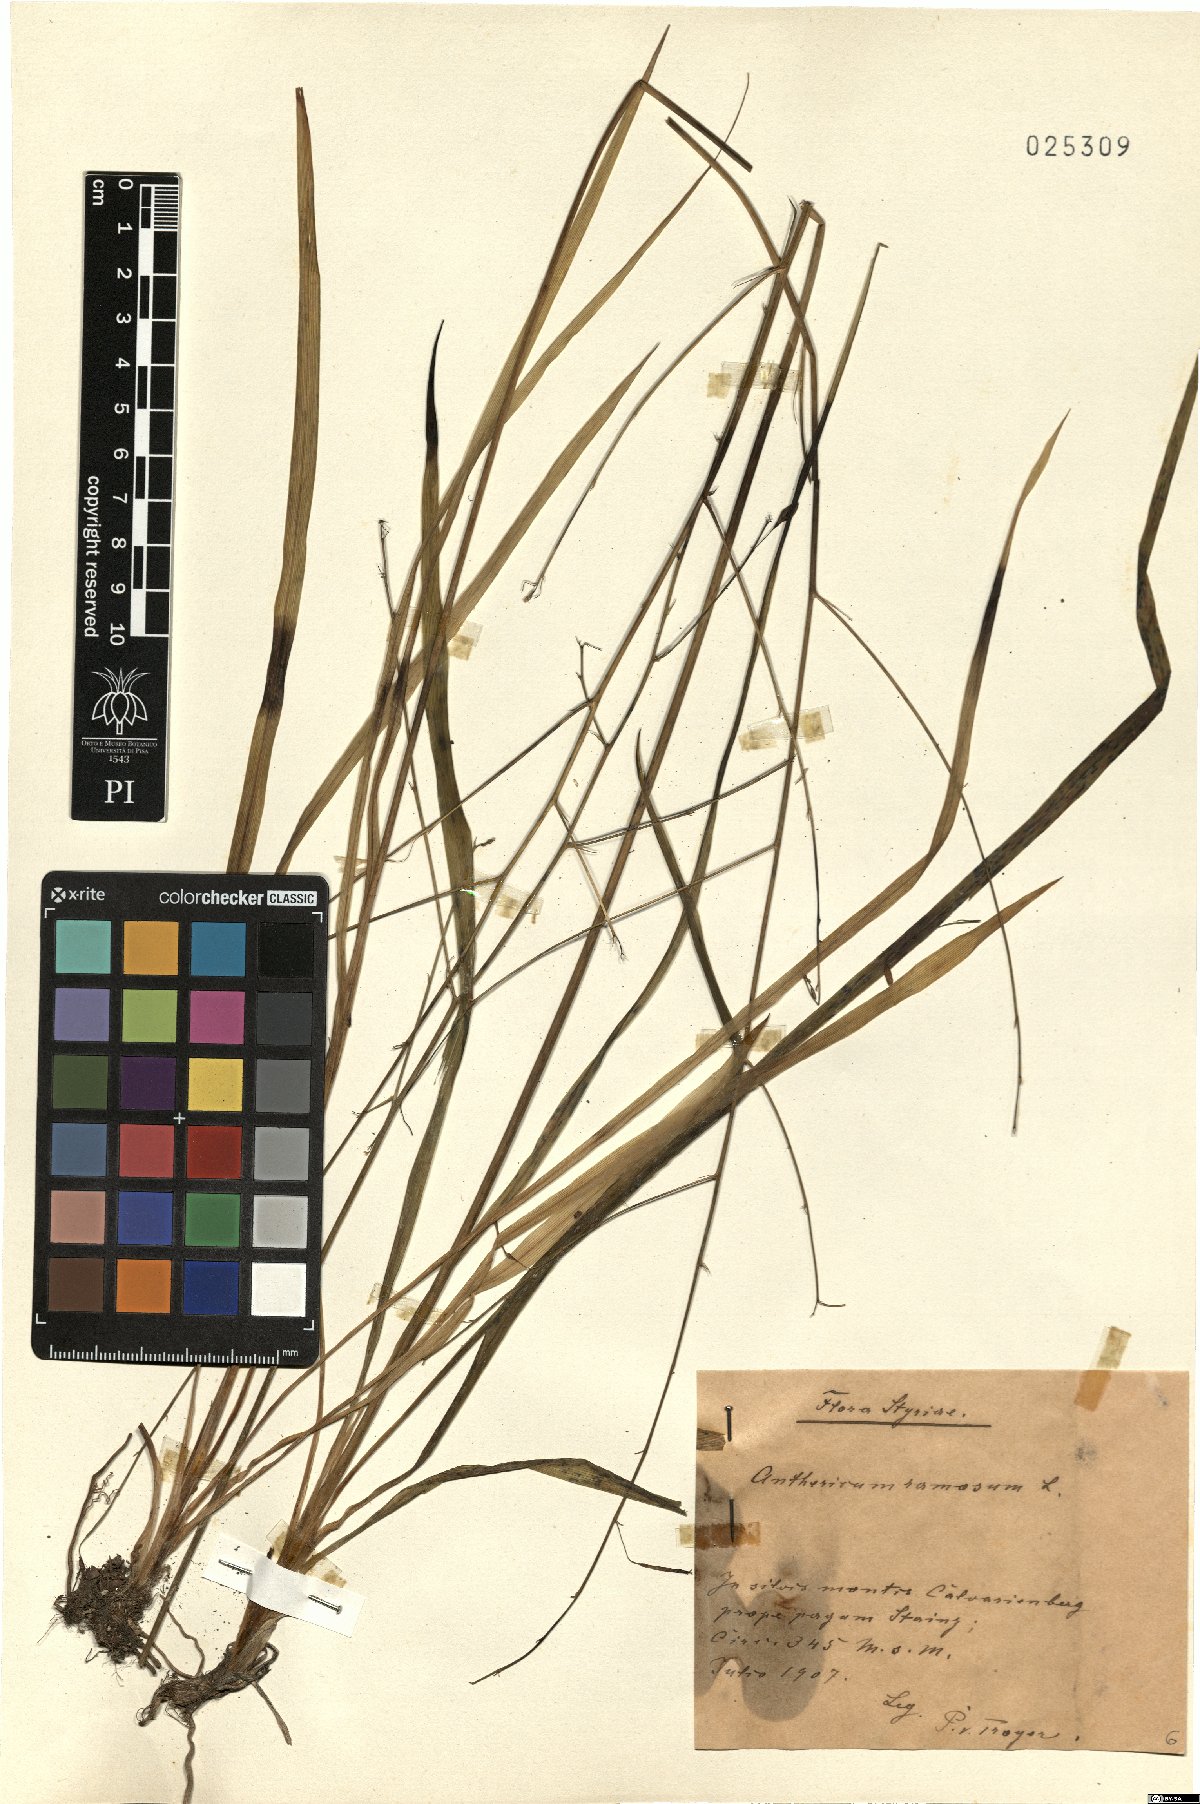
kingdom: Plantae
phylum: Tracheophyta
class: Liliopsida
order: Asparagales
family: Asparagaceae
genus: Anthericum
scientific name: Anthericum ramosum
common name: Branched st. bernard's-lily
